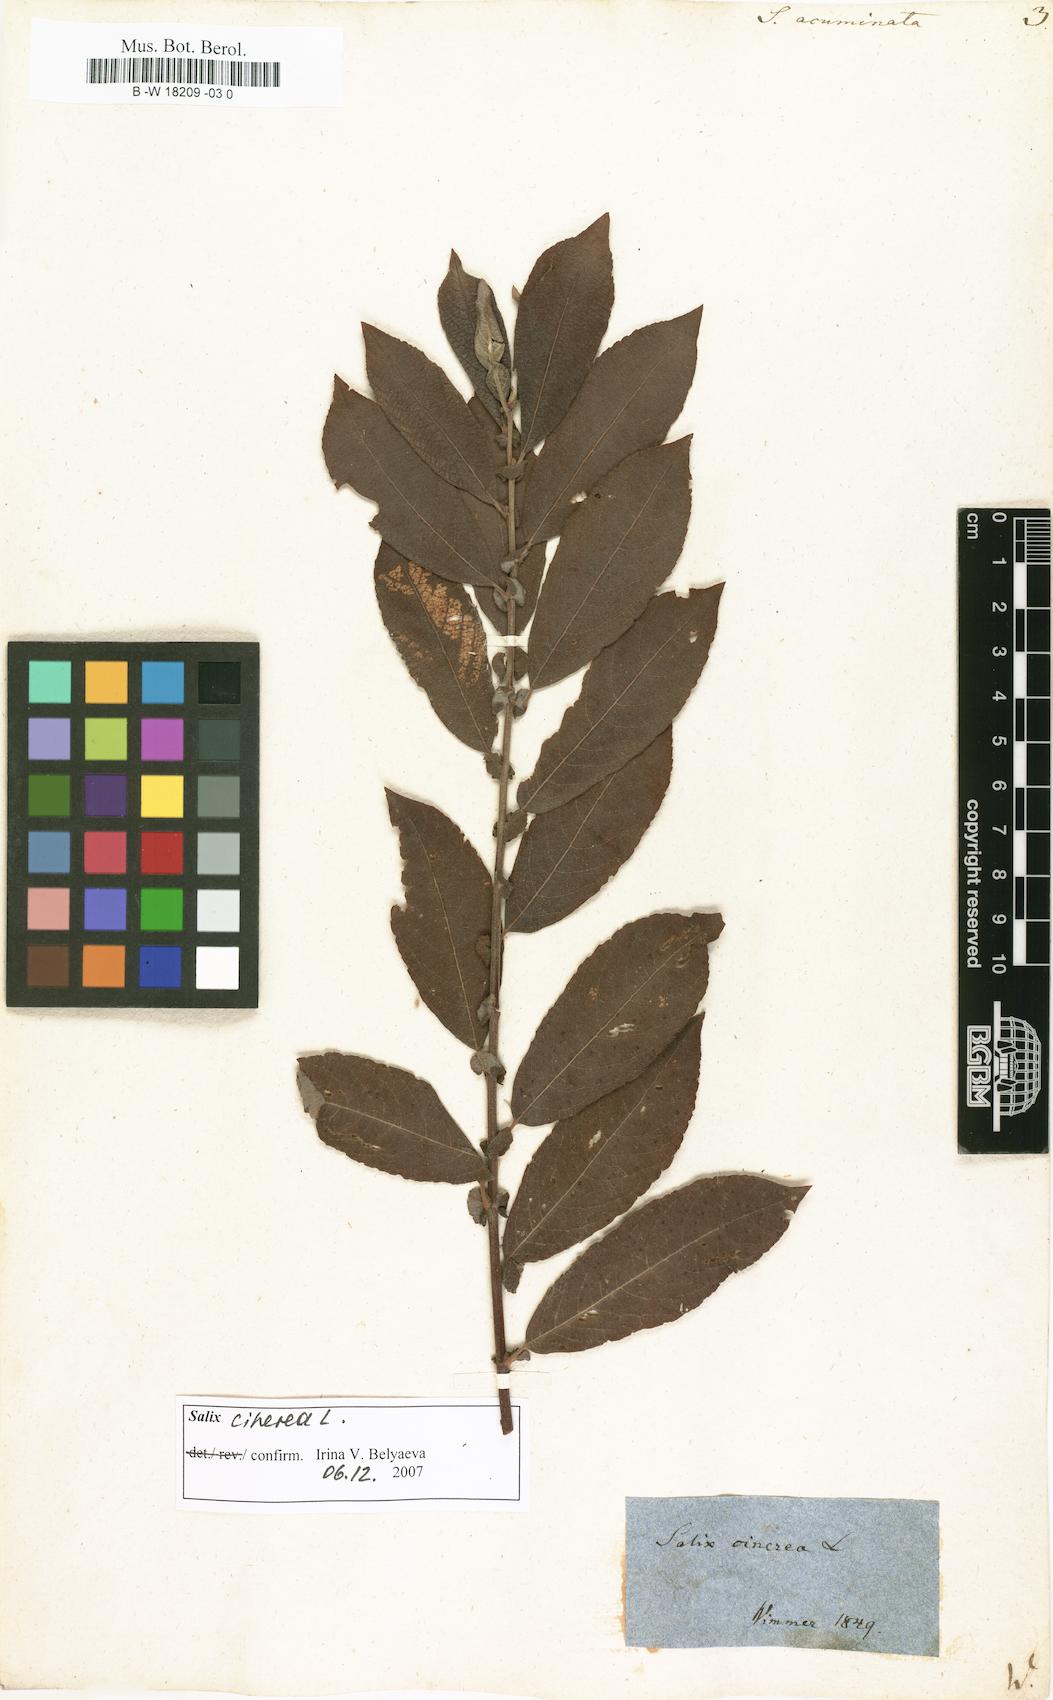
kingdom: Plantae
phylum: Tracheophyta
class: Magnoliopsida
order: Malpighiales
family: Salicaceae
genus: Salix
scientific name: Salix
